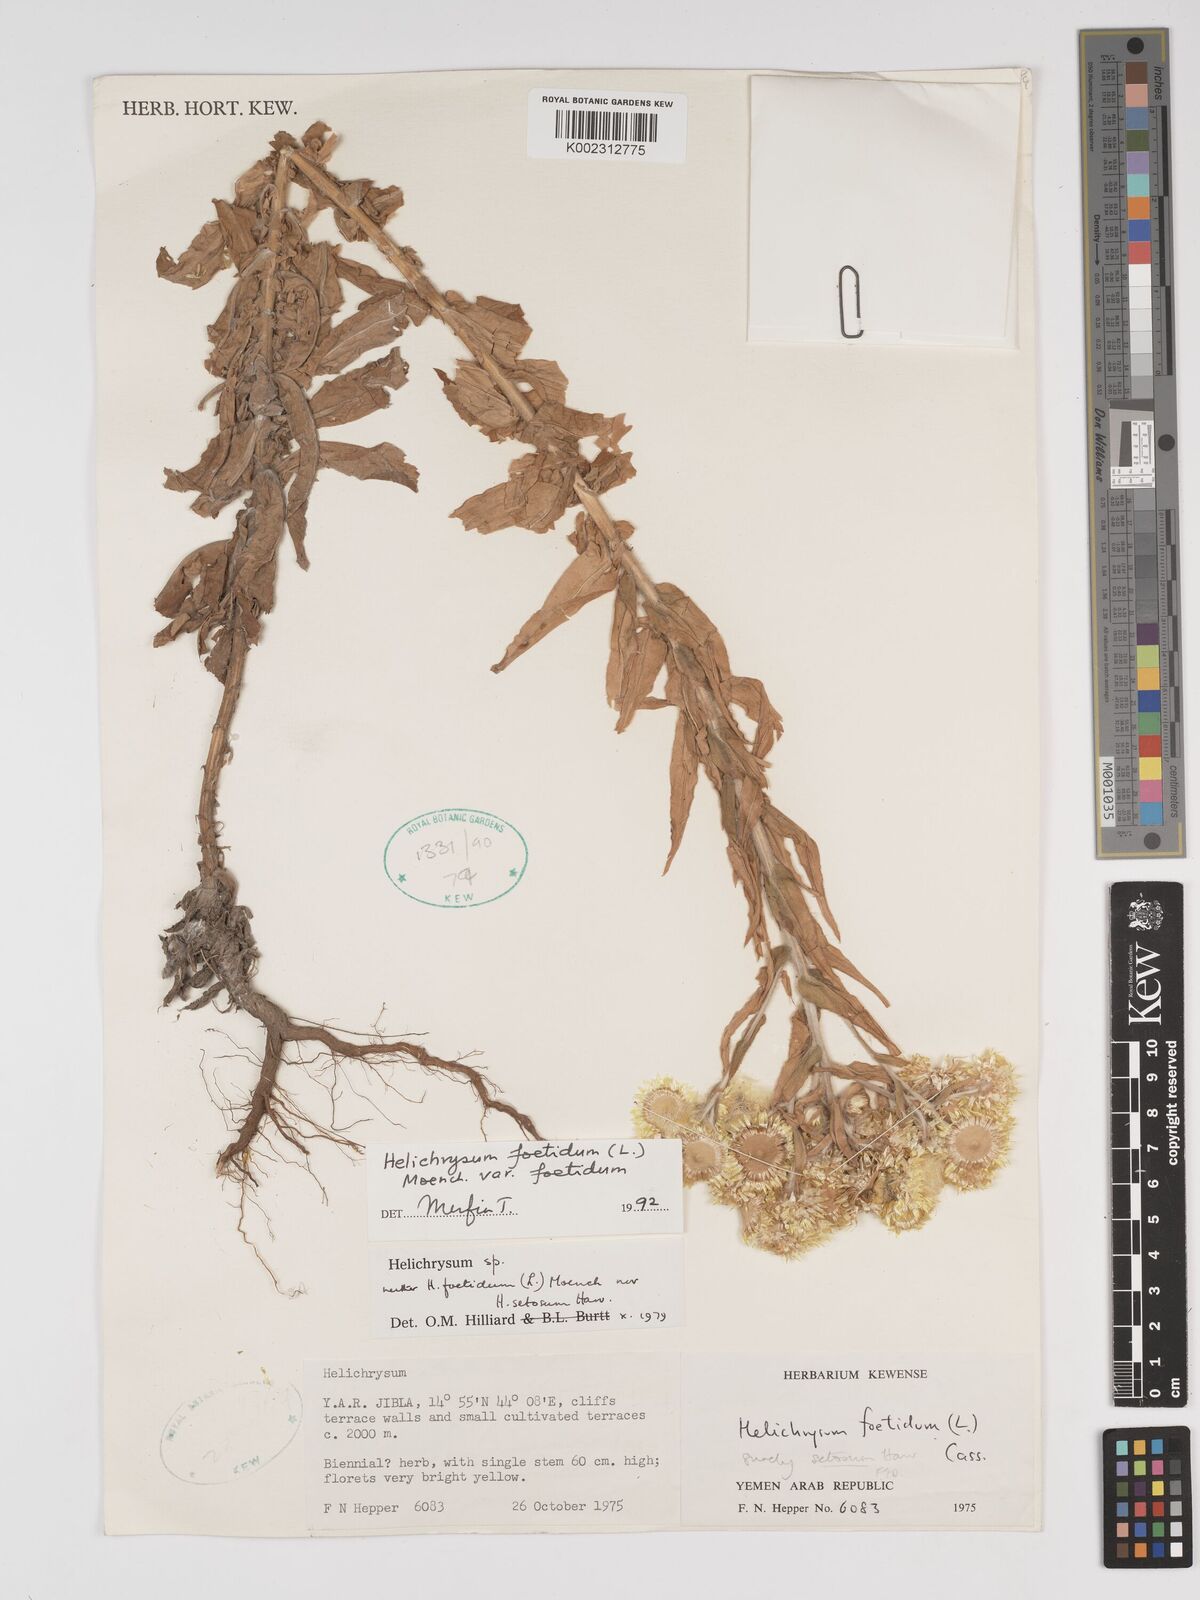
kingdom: Plantae
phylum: Tracheophyta
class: Magnoliopsida
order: Asterales
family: Asteraceae
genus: Helichrysum
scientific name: Helichrysum foetidum
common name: Stinking everlasting
